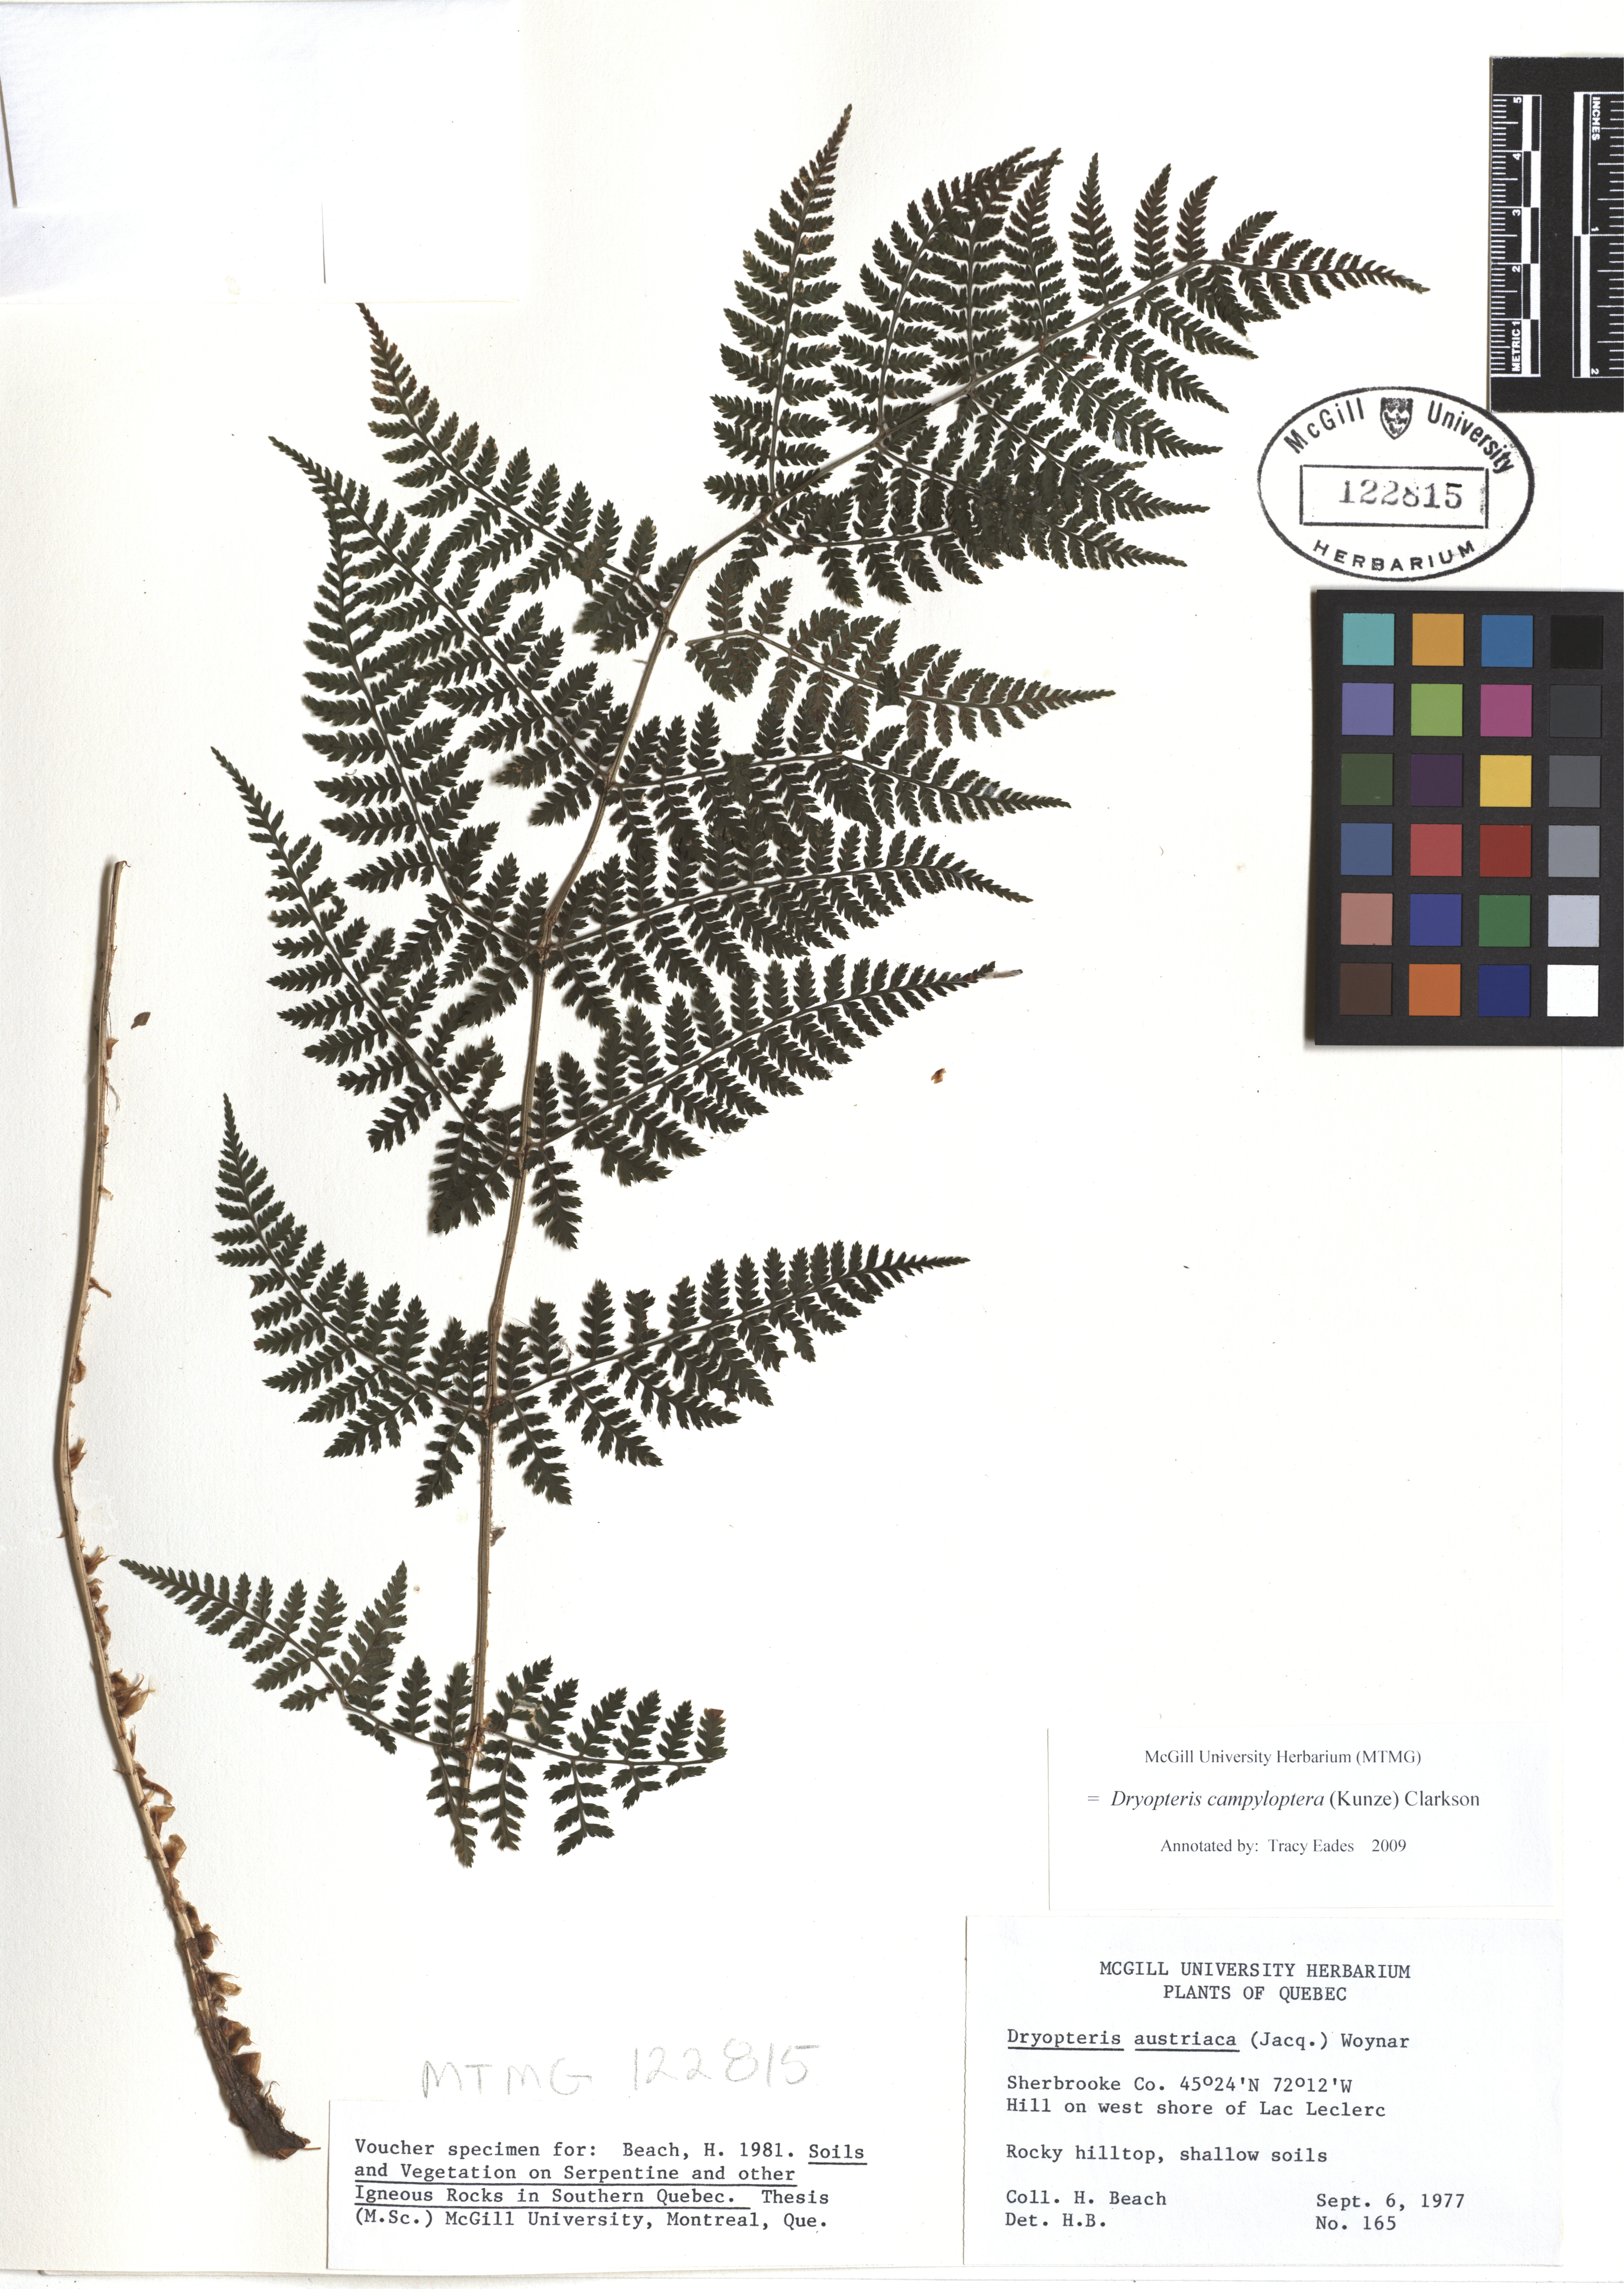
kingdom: Plantae
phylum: Tracheophyta
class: Polypodiopsida
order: Polypodiales
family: Dryopteridaceae
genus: Dryopteris
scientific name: Dryopteris campyloptera
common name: Mountain wood fern
